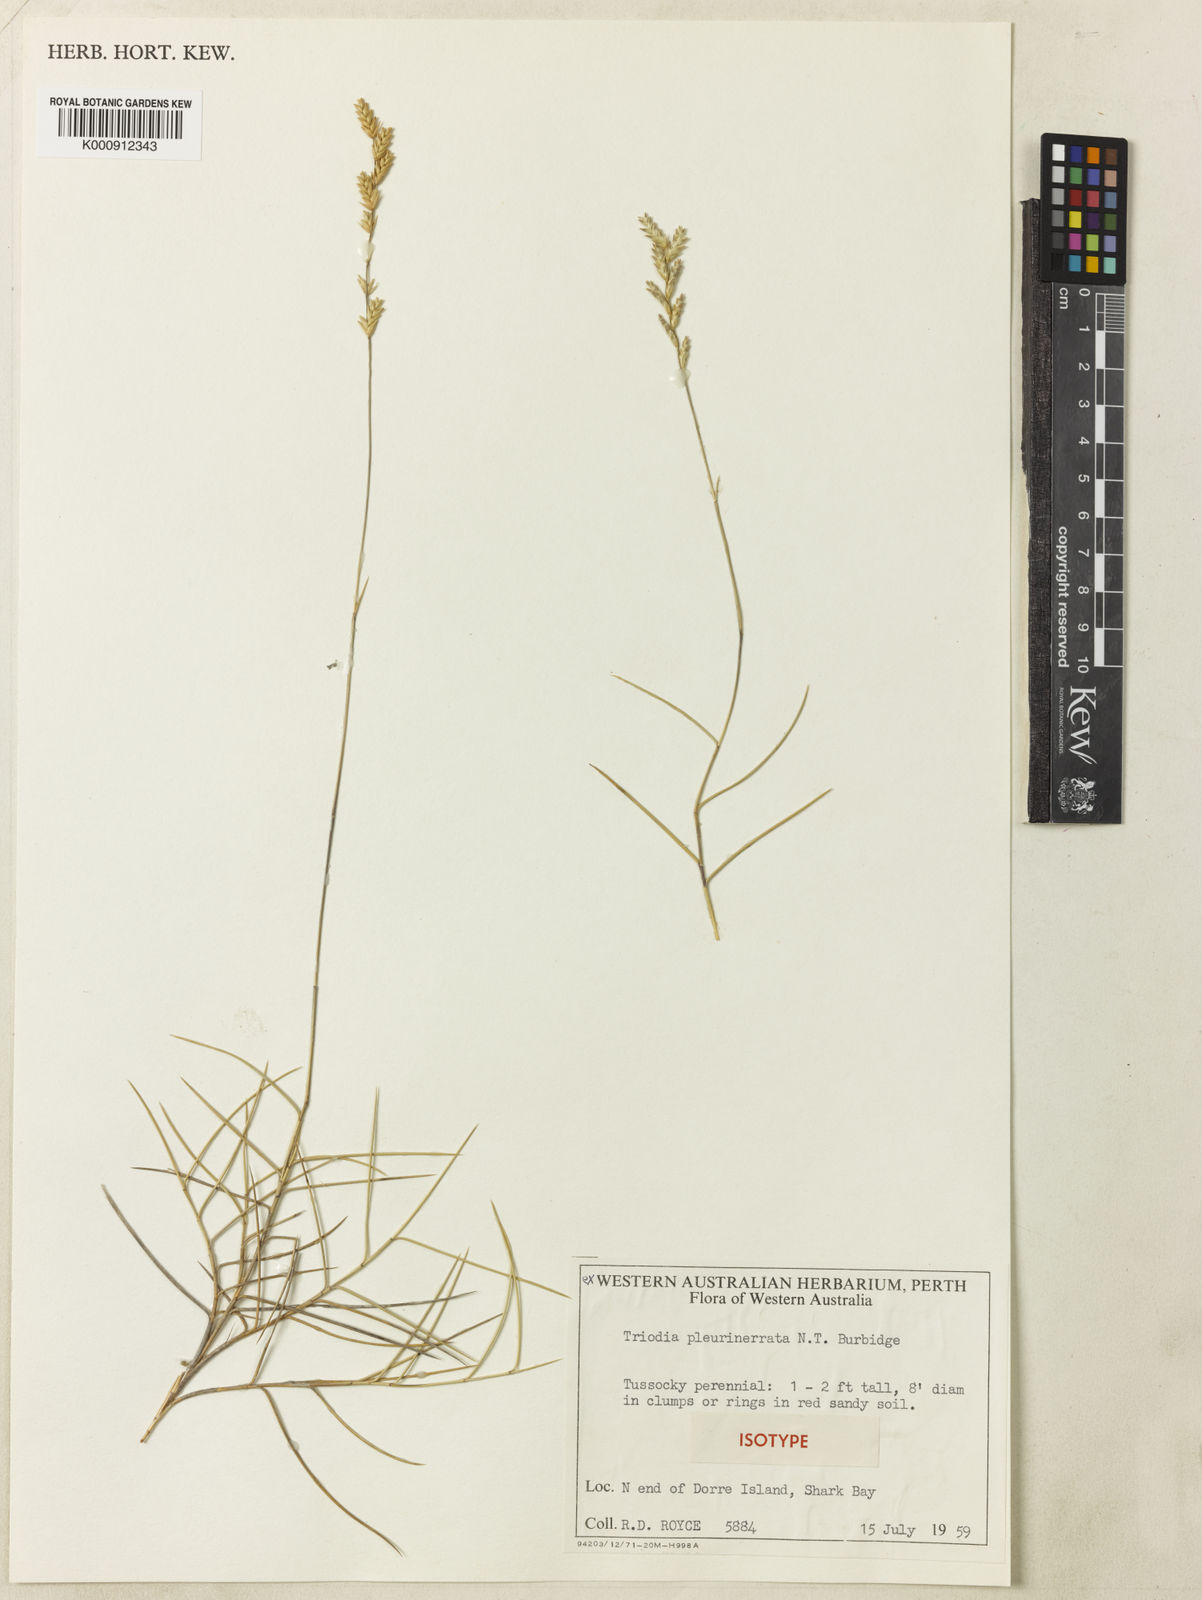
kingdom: Plantae
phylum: Tracheophyta
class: Liliopsida
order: Poales
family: Poaceae
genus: Triodia
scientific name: Triodia plurinervata
